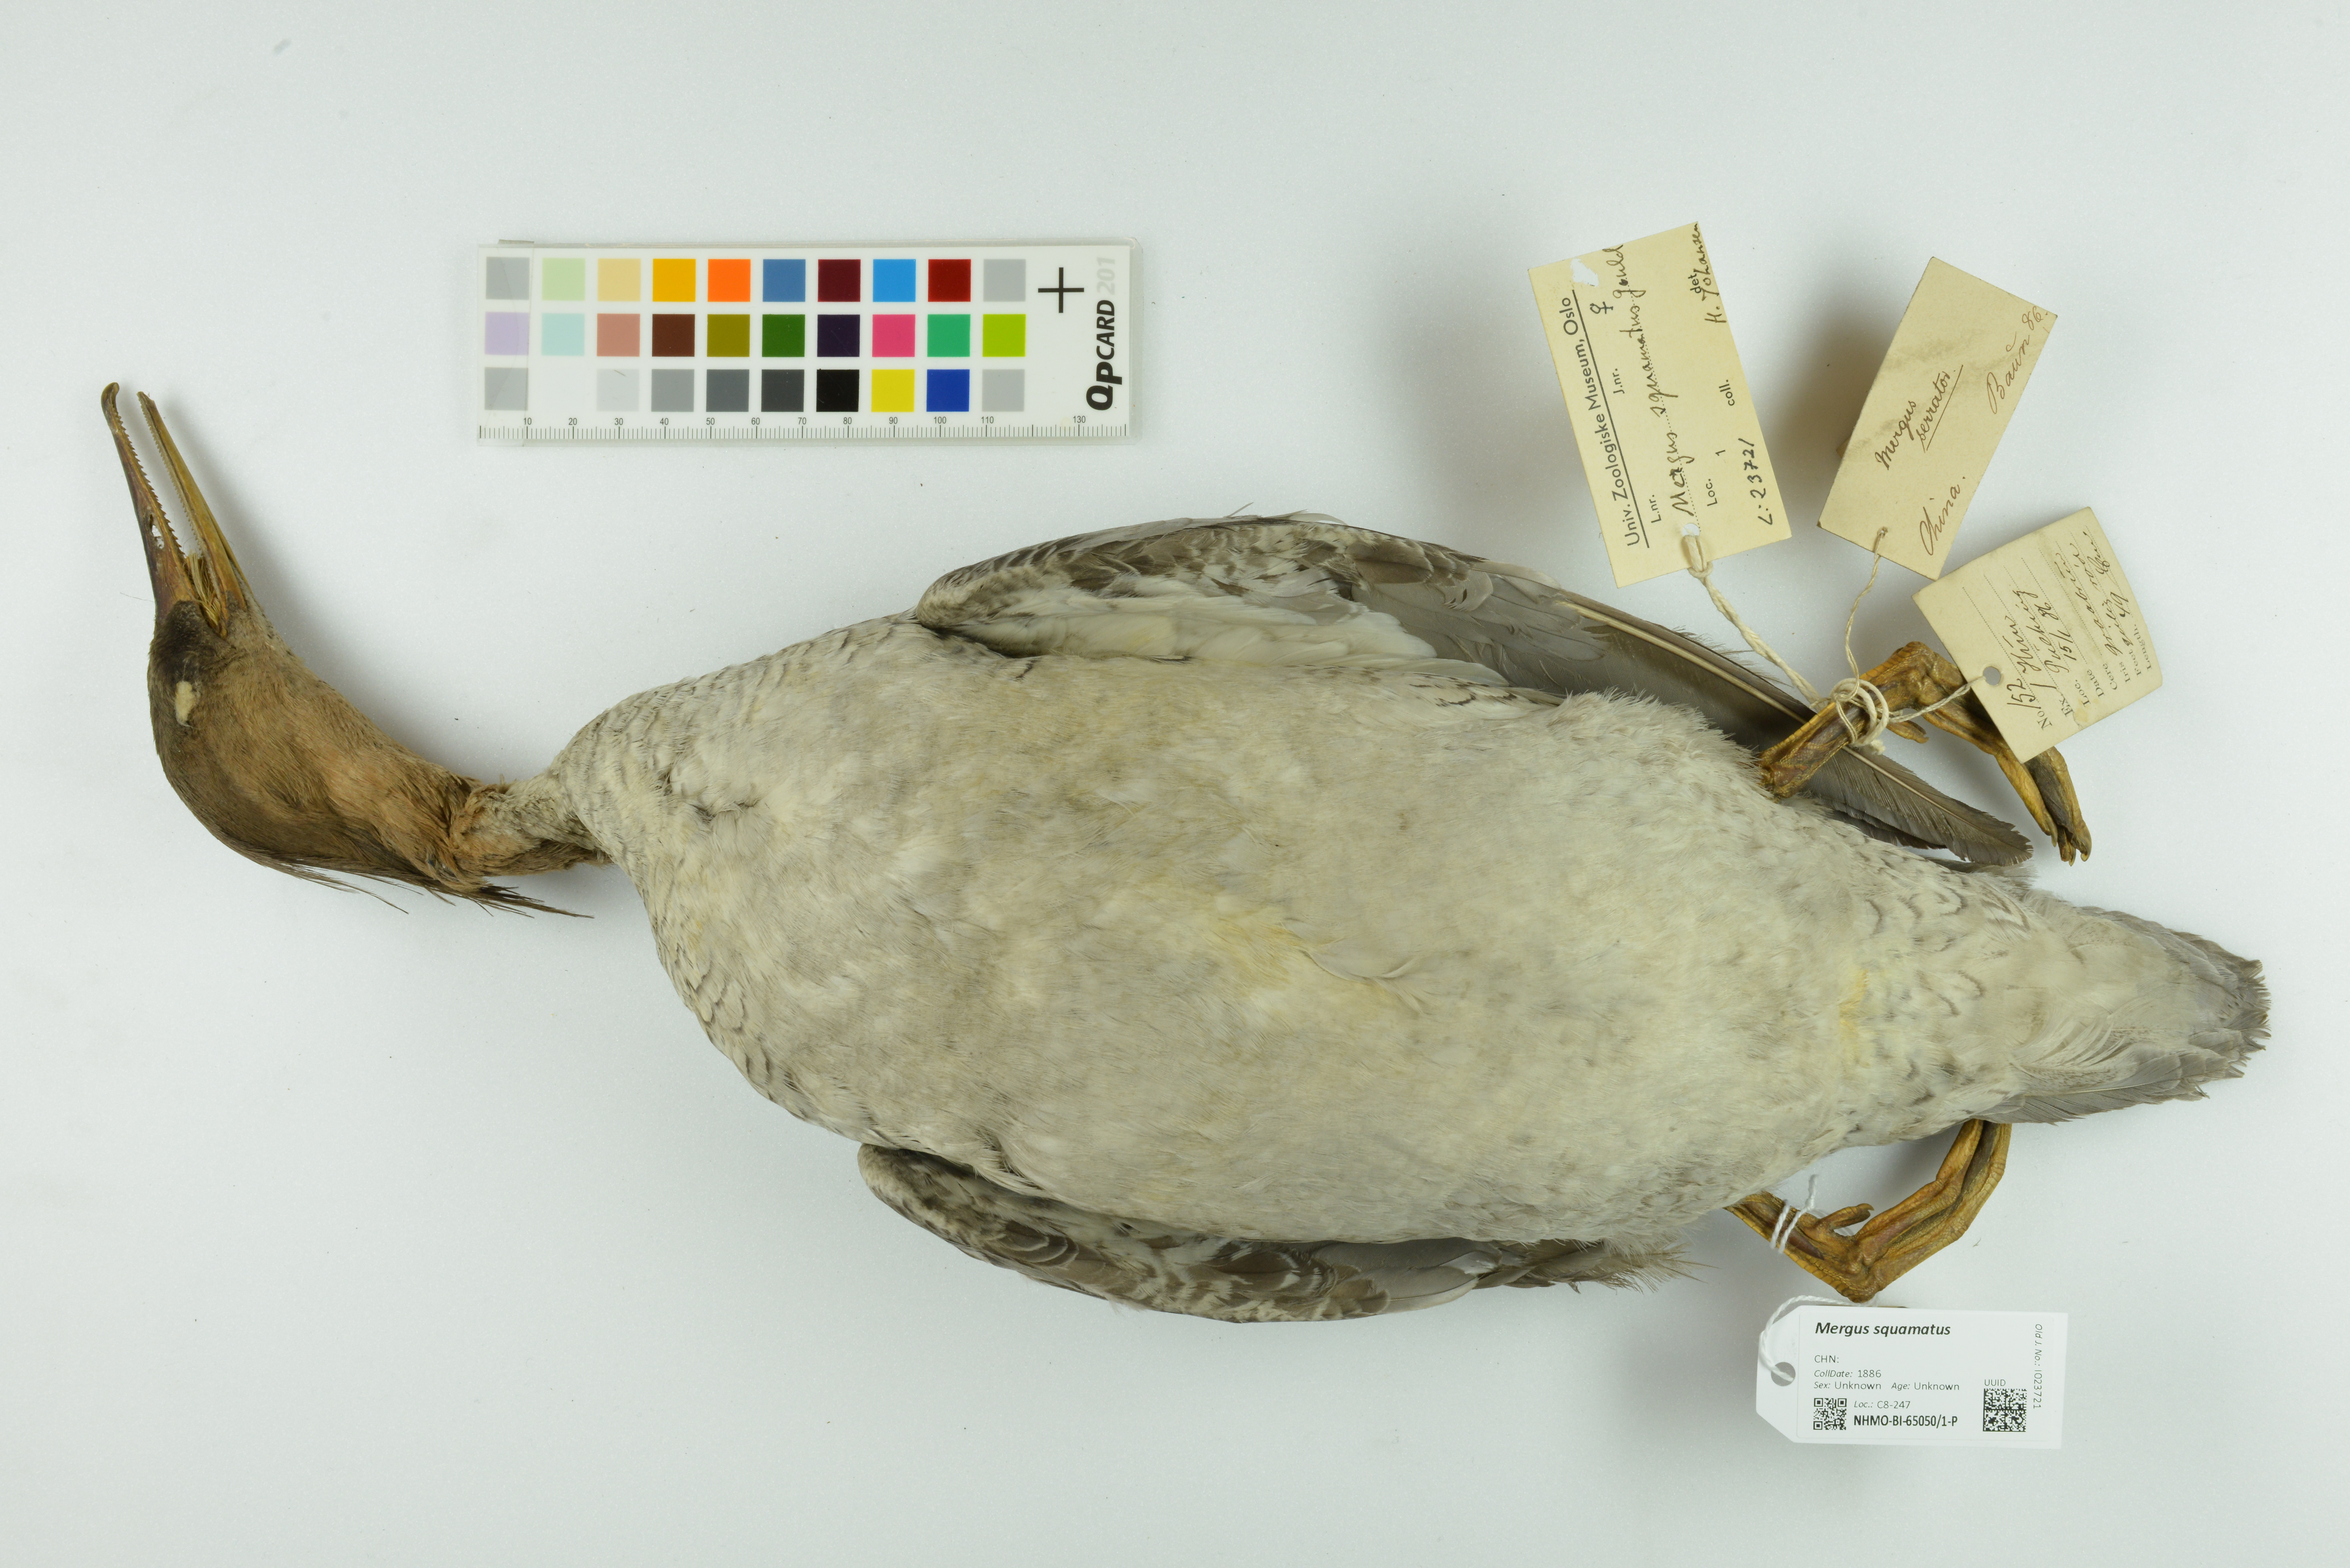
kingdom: Animalia
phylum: Chordata
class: Aves
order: Anseriformes
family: Anatidae
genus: Mergus
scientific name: Mergus squamatus
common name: Scaly-sided merganser
